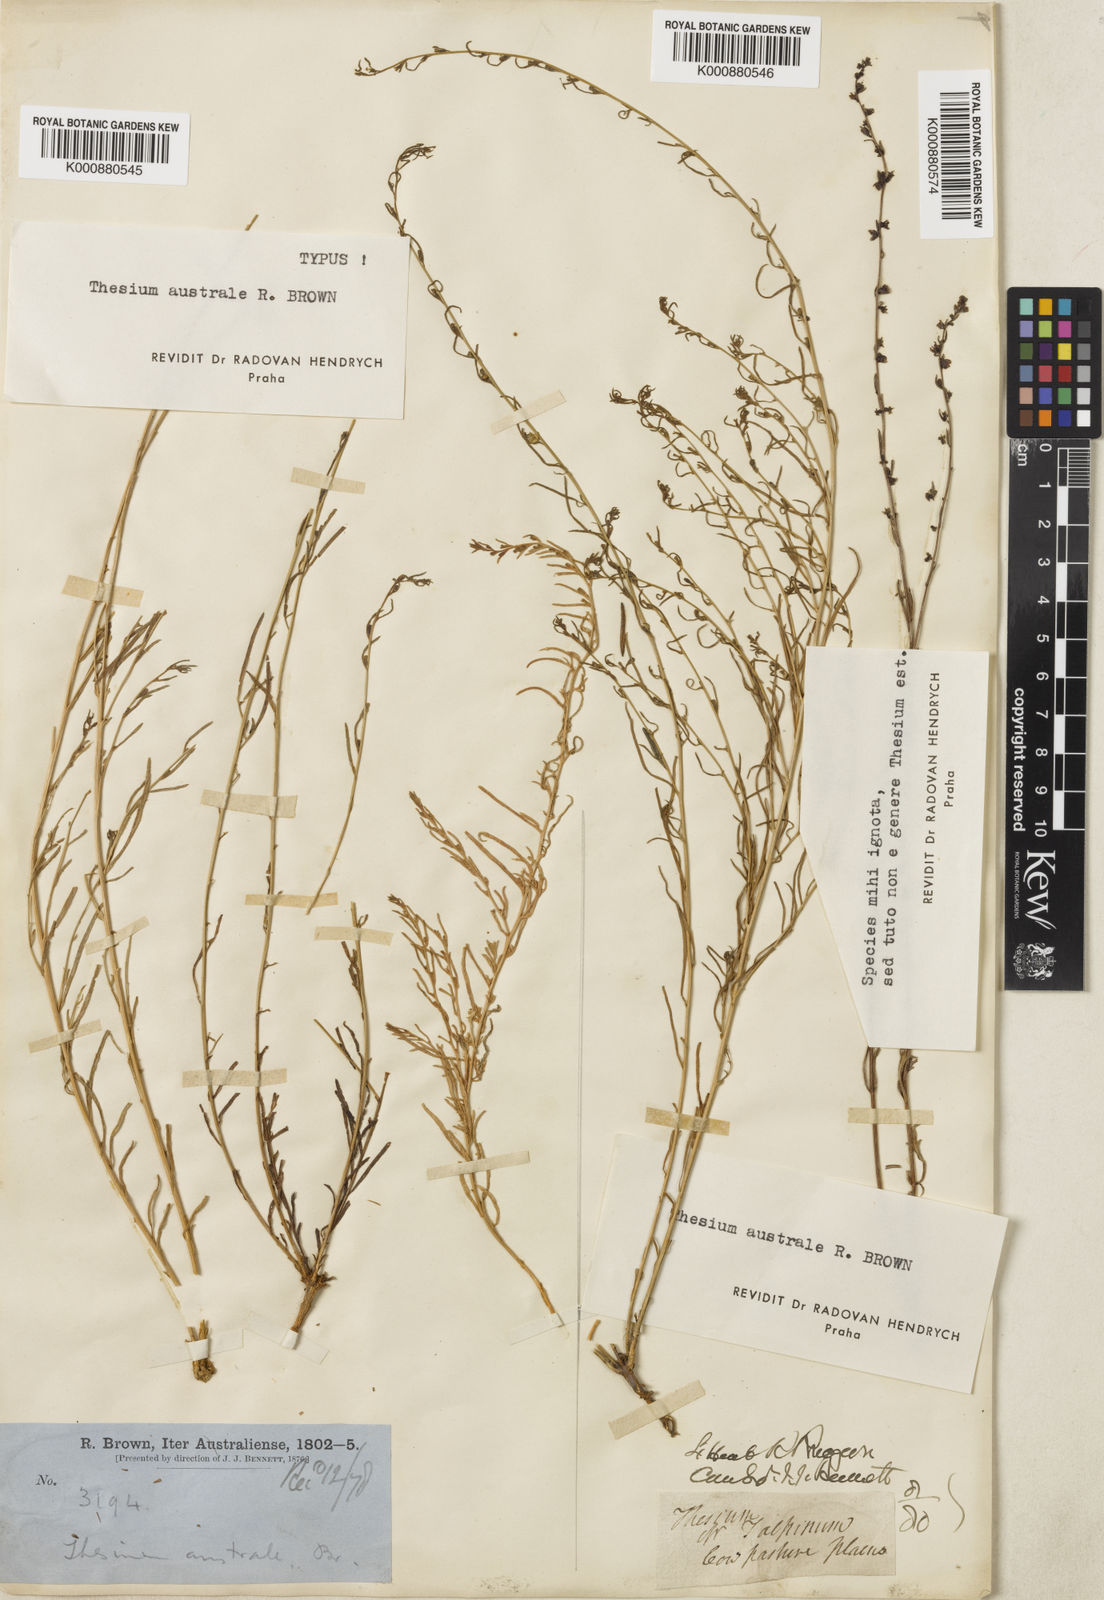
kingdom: Plantae
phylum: Tracheophyta
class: Magnoliopsida
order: Santalales
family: Thesiaceae
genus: Thesium
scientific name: Thesium australe
